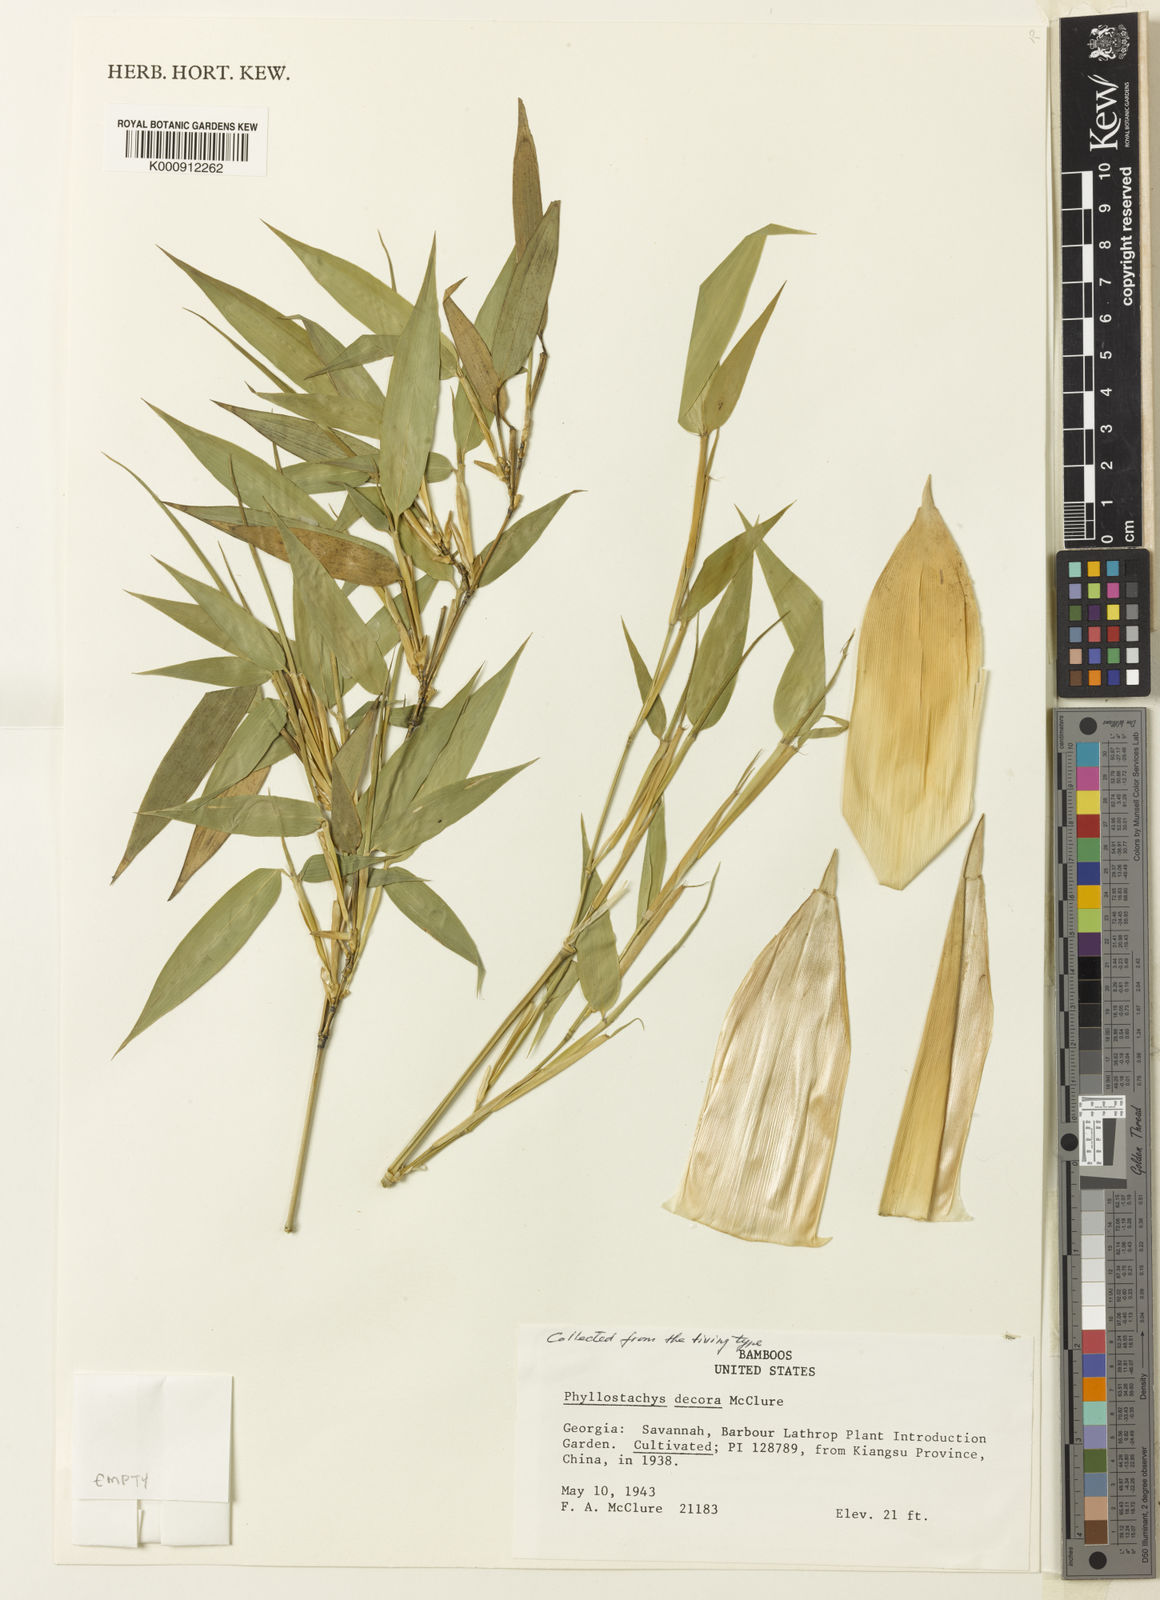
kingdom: Plantae
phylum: Tracheophyta
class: Liliopsida
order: Poales
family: Poaceae
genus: Phyllostachys
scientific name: Phyllostachys mannii
